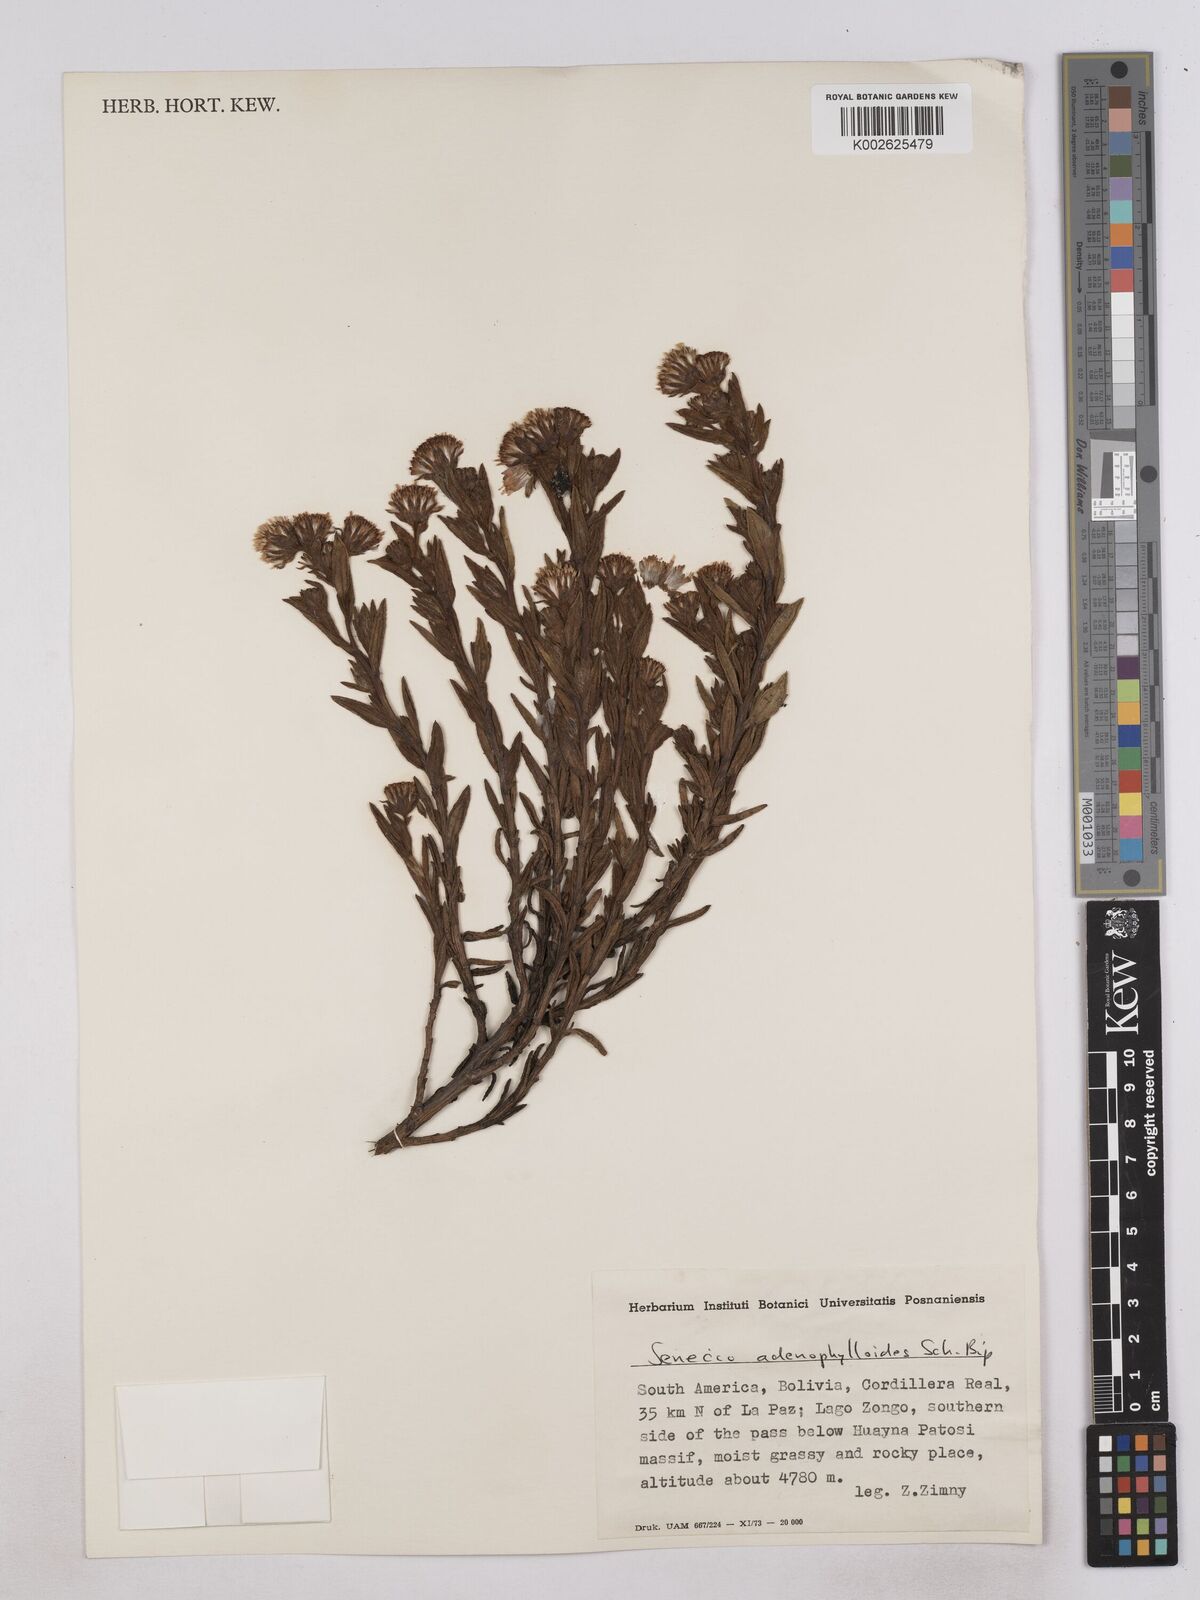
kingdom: Plantae
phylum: Tracheophyta
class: Magnoliopsida
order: Asterales
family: Asteraceae
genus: Senecio
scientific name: Senecio rufescens
